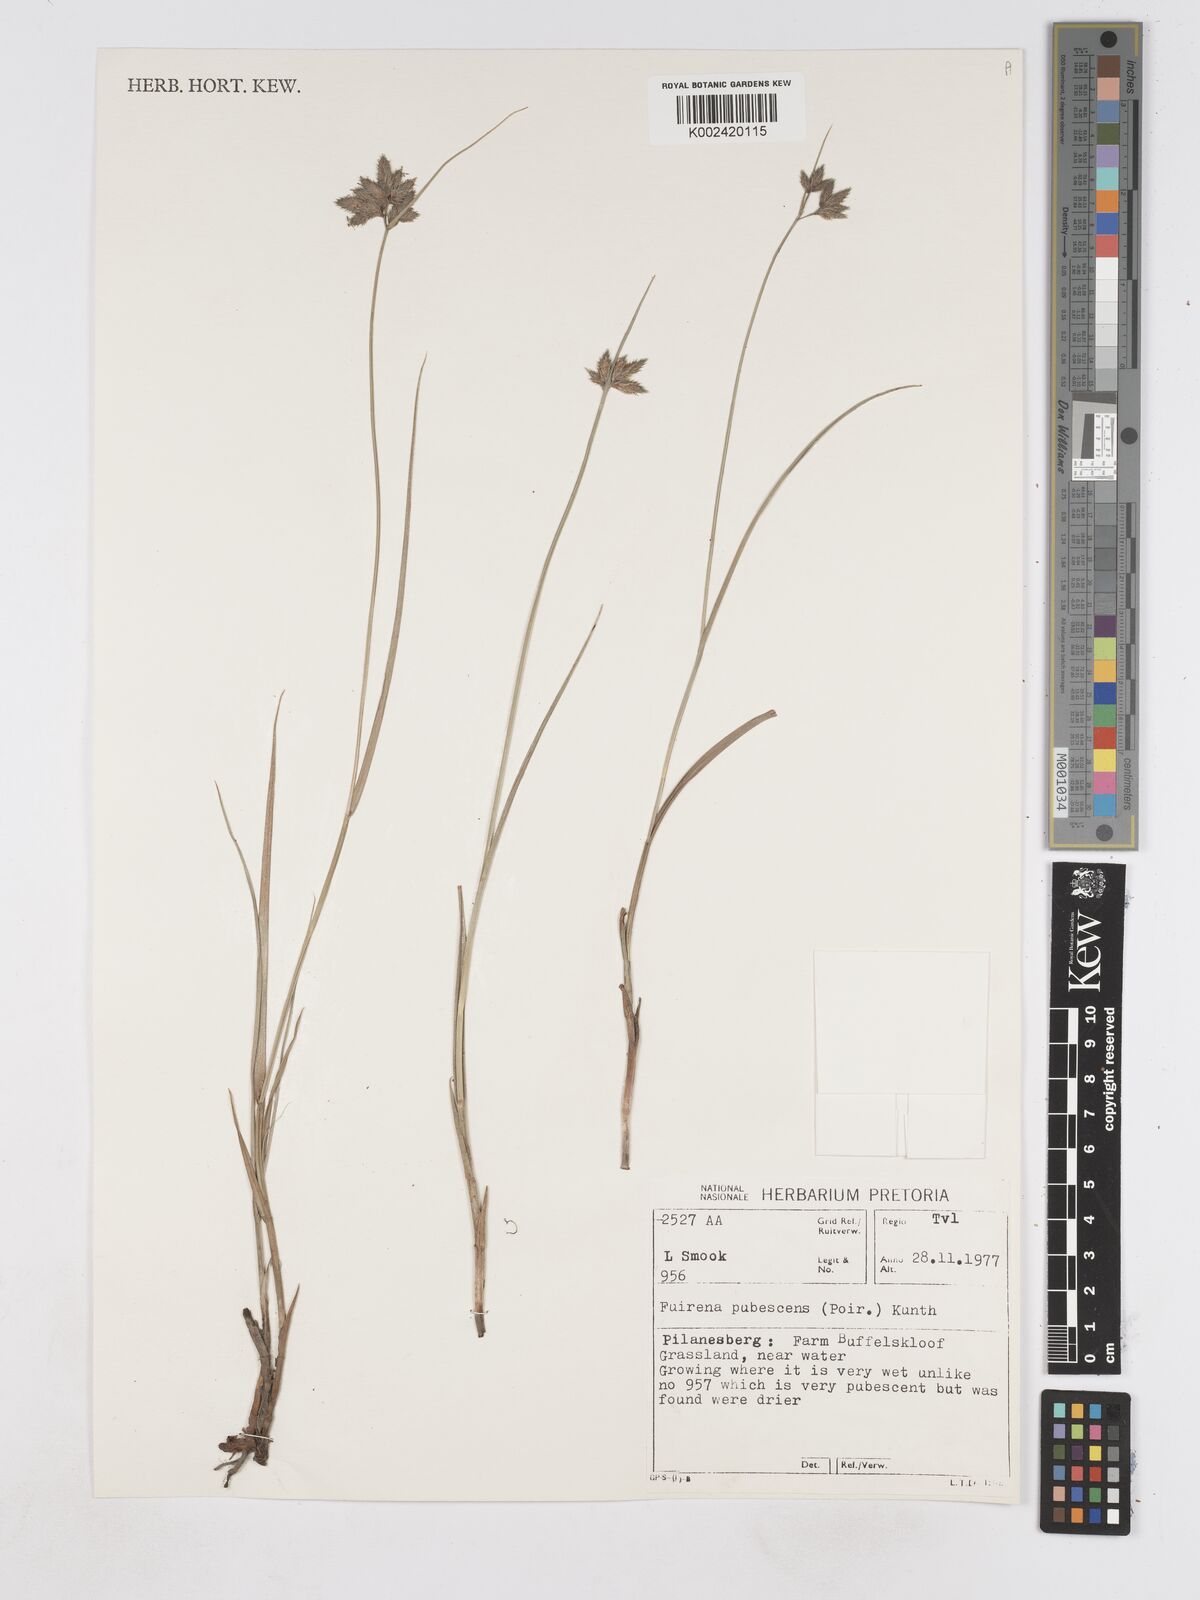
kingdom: Plantae
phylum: Tracheophyta
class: Liliopsida
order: Poales
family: Cyperaceae
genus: Fuirena
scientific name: Fuirena pubescens
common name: Hairy sedge
